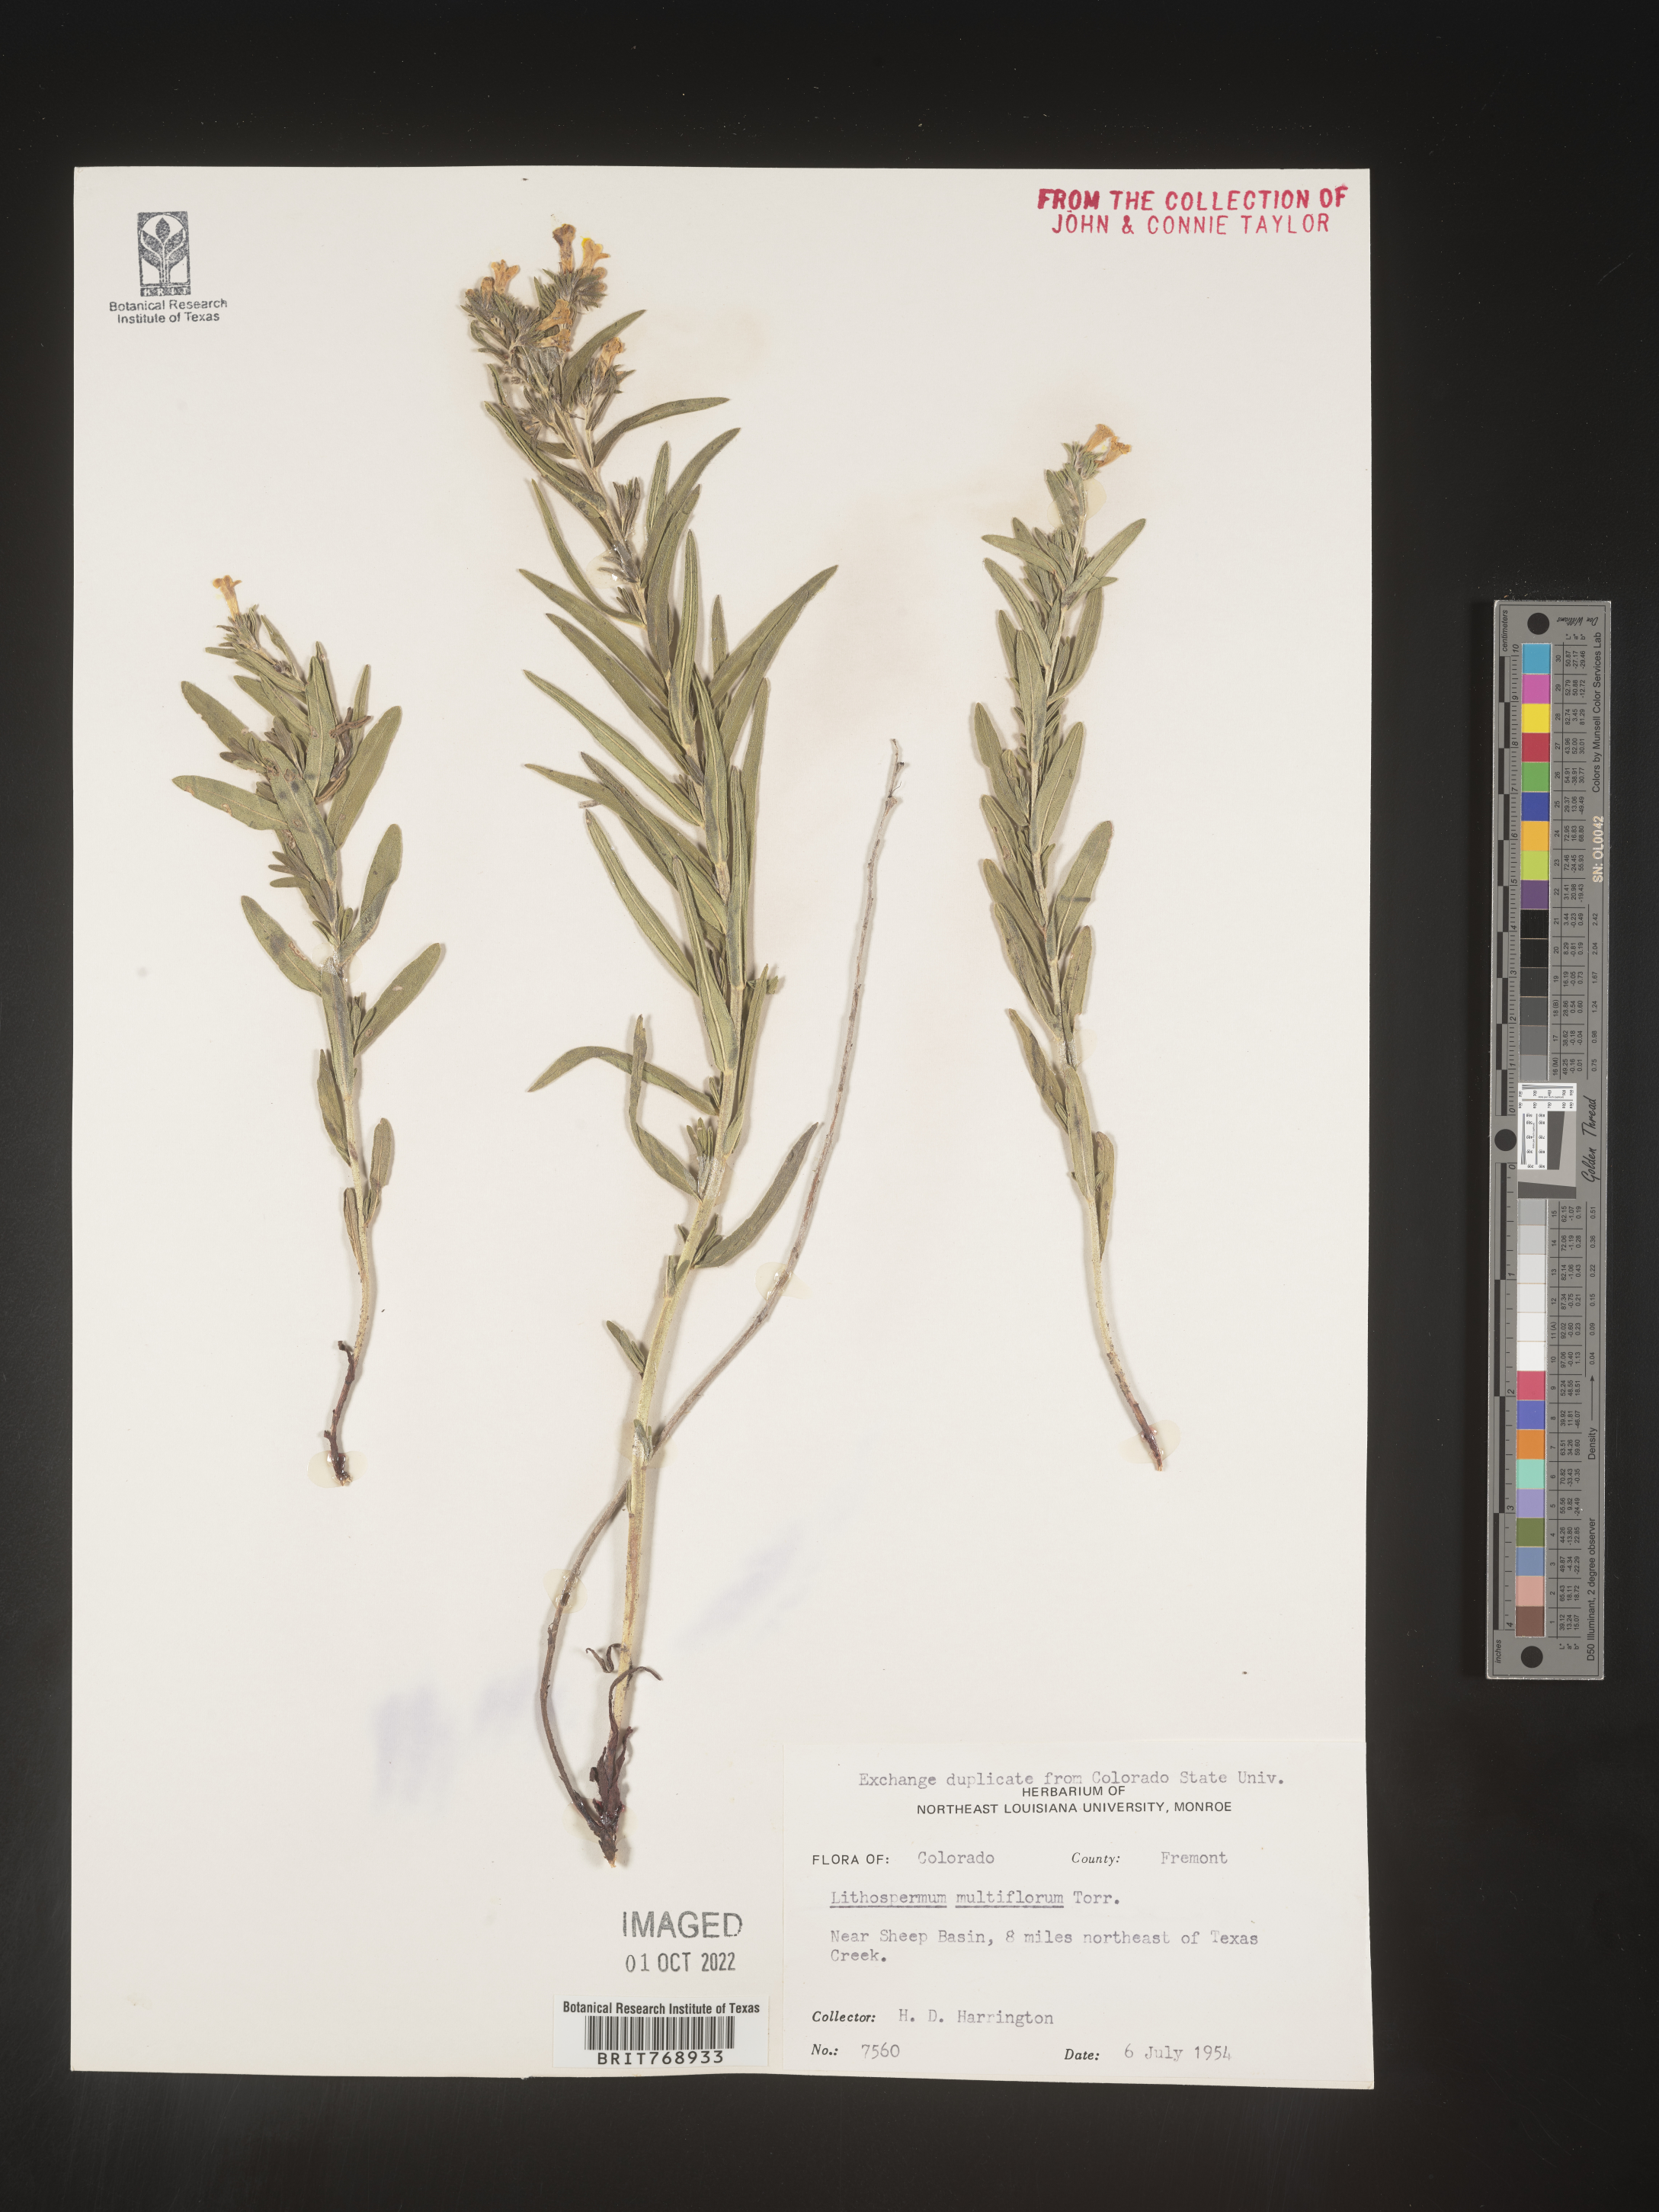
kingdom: Plantae
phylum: Tracheophyta
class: Magnoliopsida
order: Boraginales
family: Boraginaceae
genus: Lithospermum
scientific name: Lithospermum multiflorum
